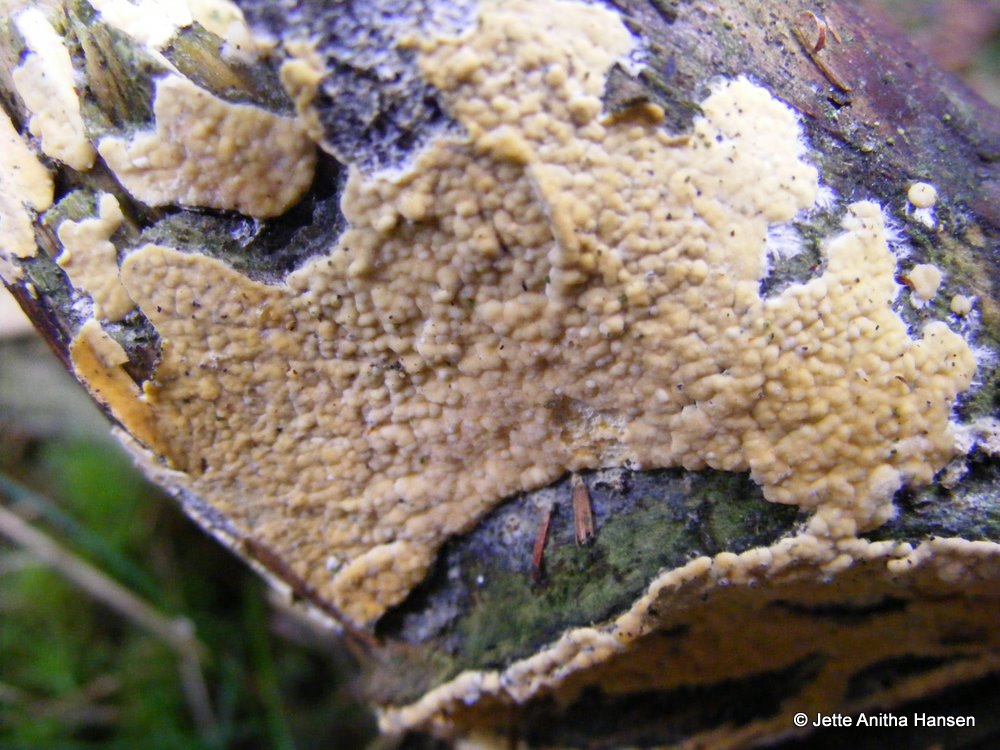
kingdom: Fungi
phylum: Basidiomycota
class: Agaricomycetes
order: Russulales
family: Peniophoraceae
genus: Gloiothele
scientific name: Gloiothele citrina
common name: citronskorpe
